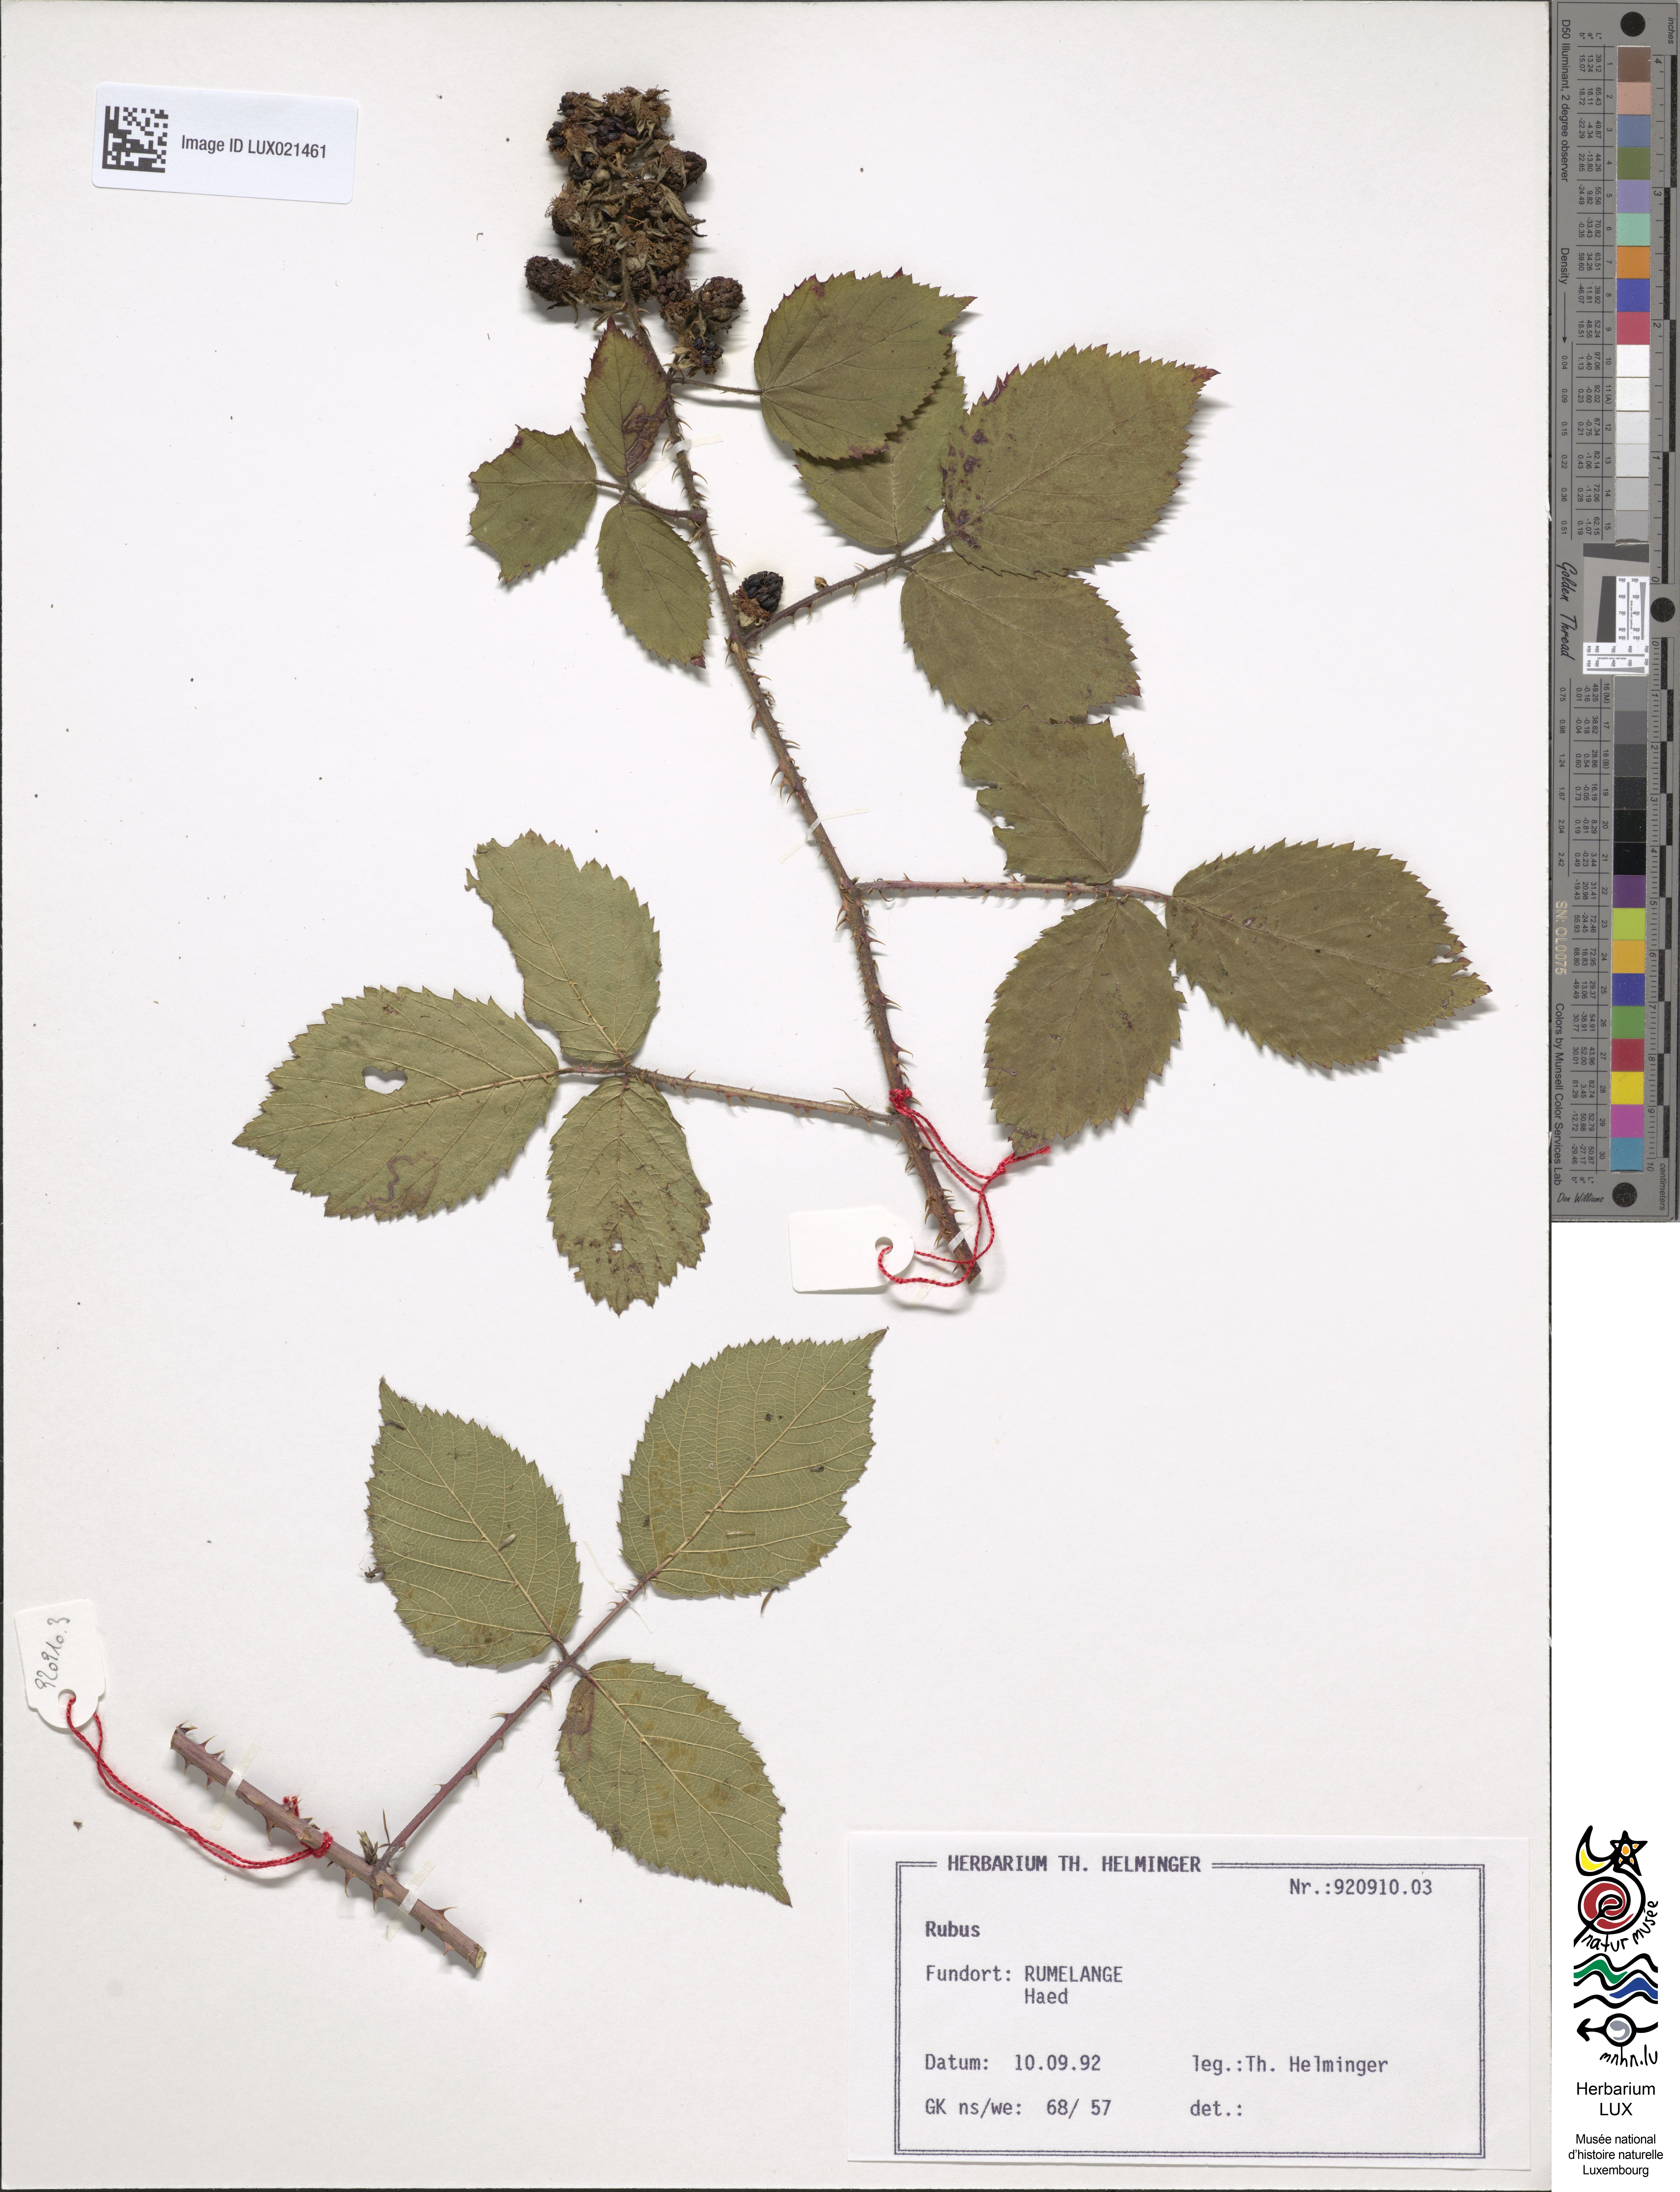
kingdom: Plantae
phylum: Tracheophyta
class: Magnoliopsida
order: Rosales
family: Rosaceae
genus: Rubus
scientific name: Rubus
